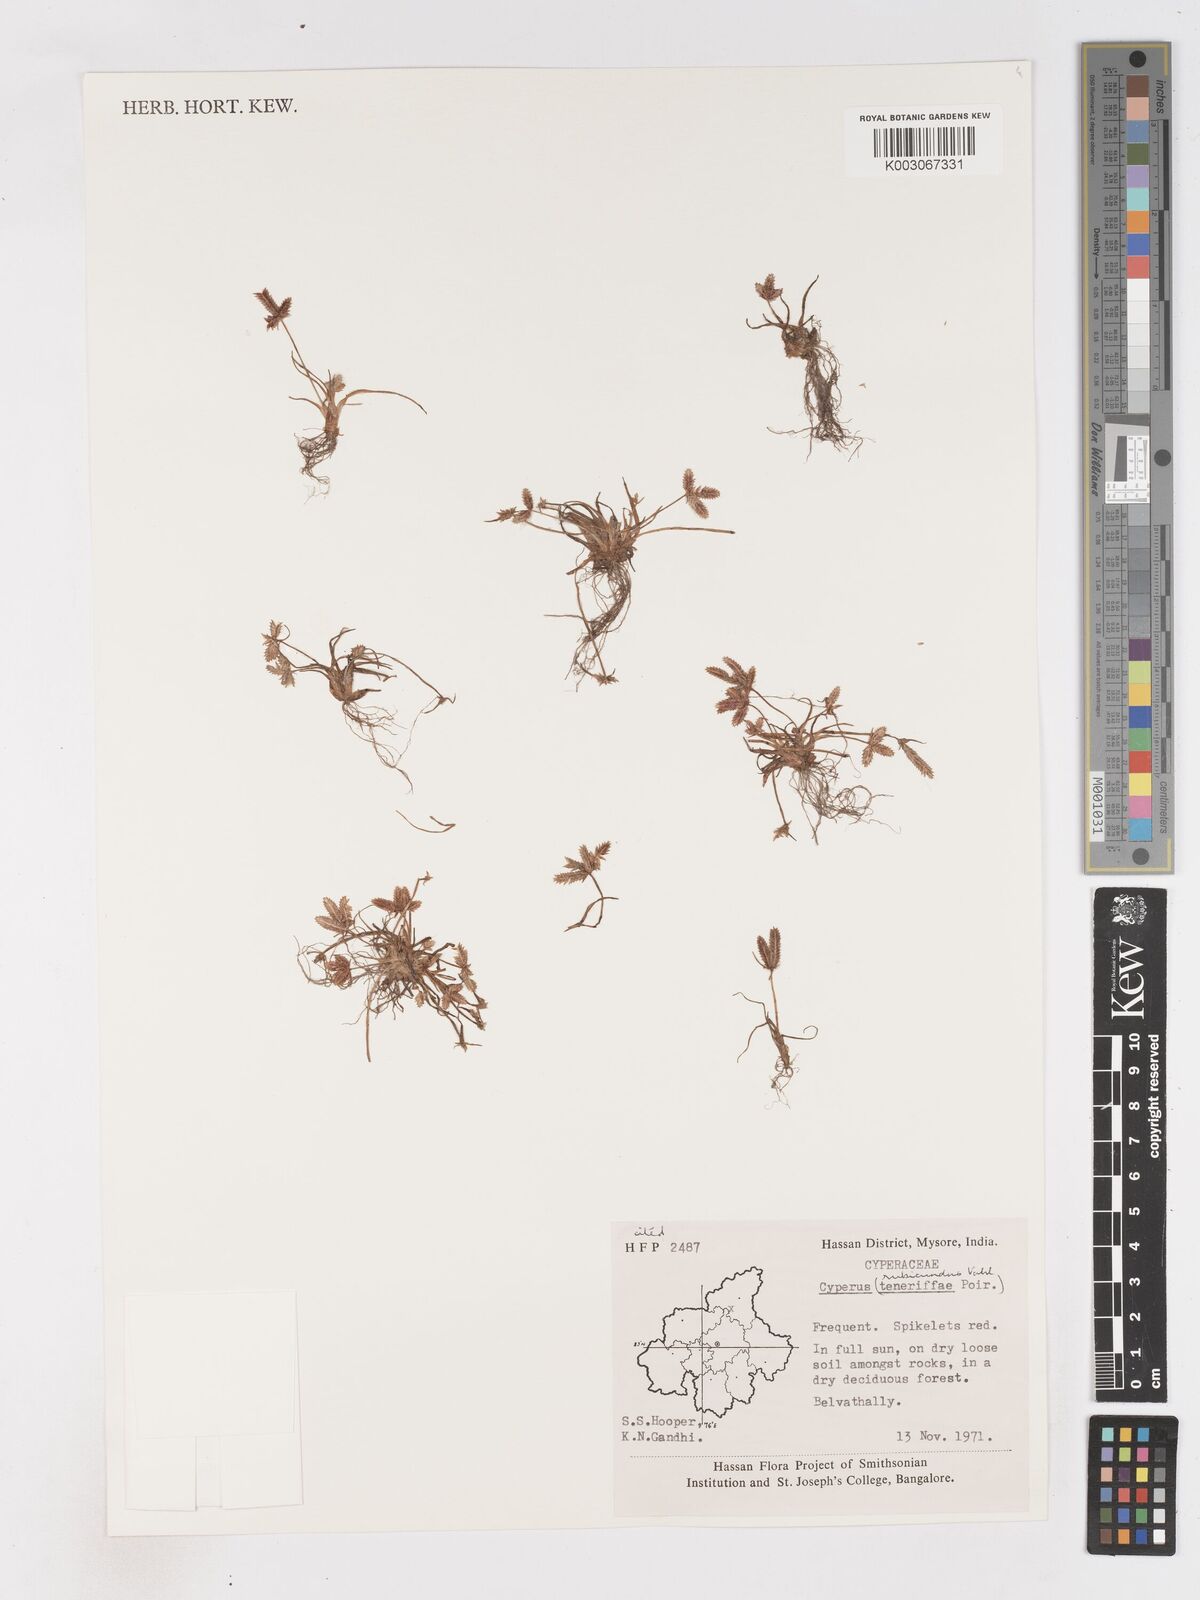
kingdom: Plantae
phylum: Tracheophyta
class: Liliopsida
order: Poales
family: Cyperaceae
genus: Cyperus
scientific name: Cyperus rubicundus
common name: Coco-grass
